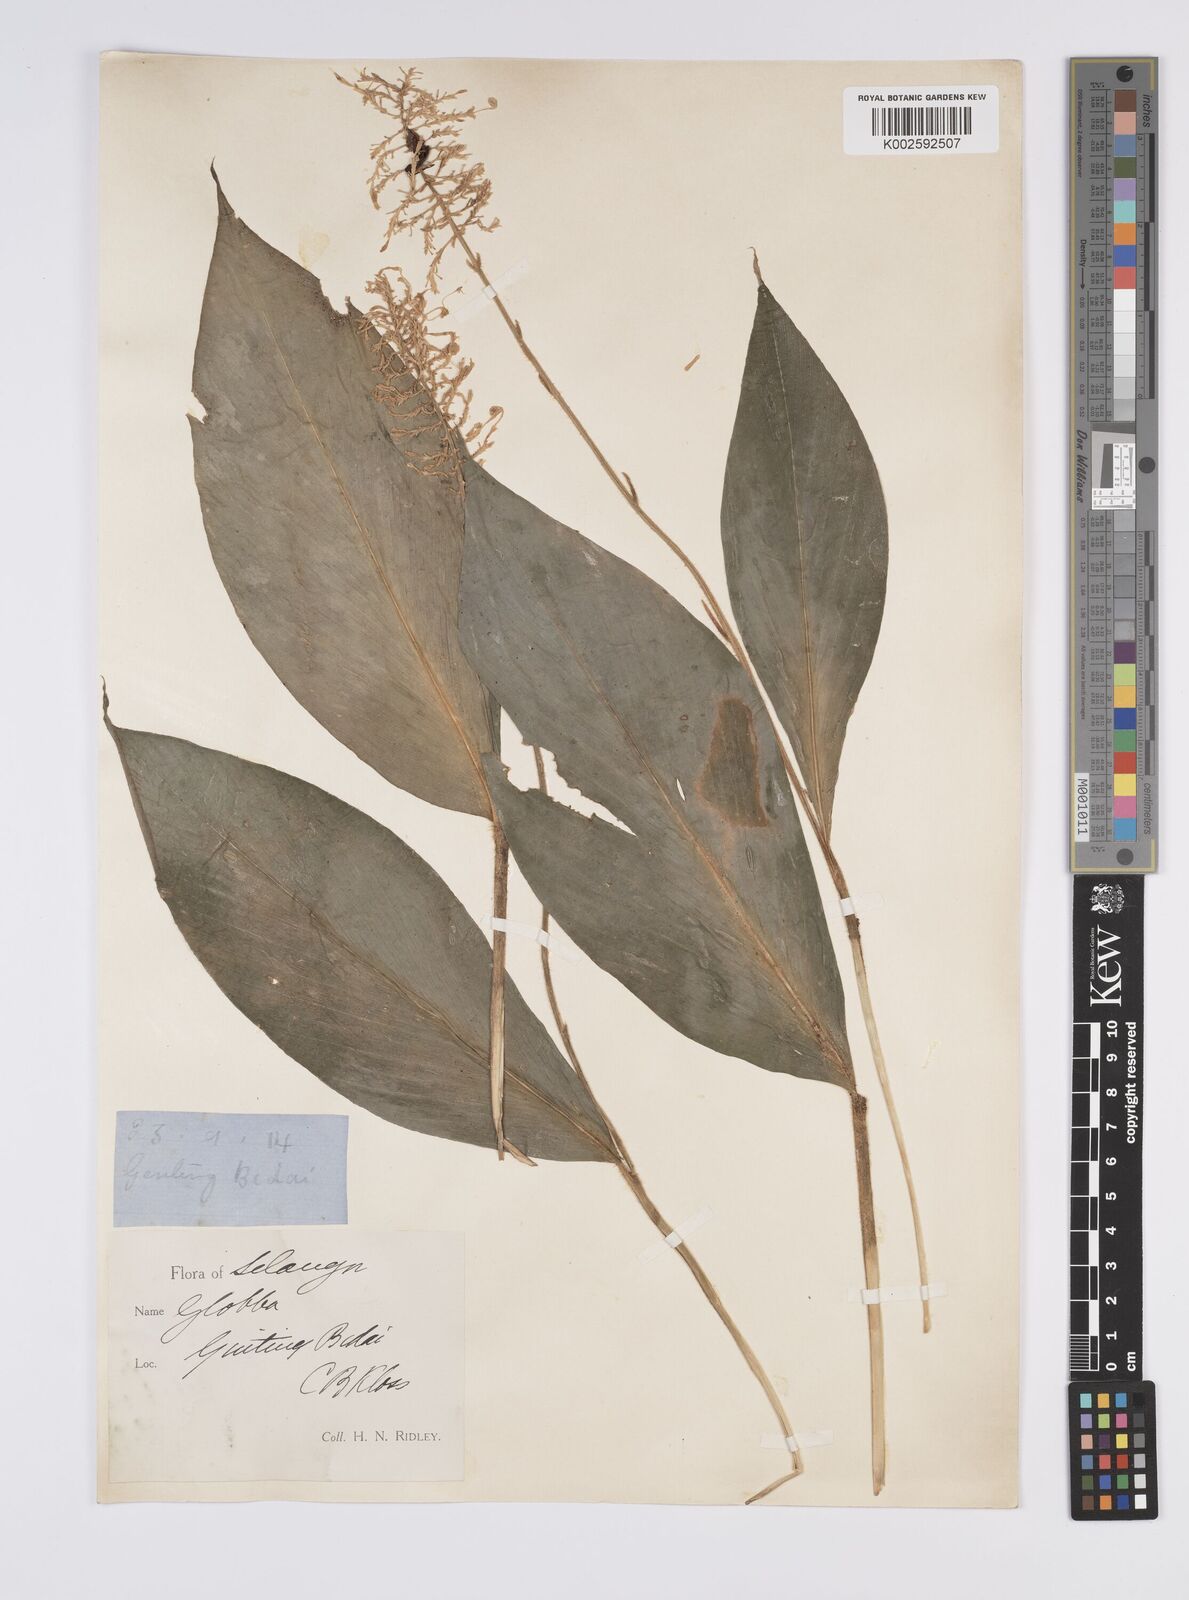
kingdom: Plantae
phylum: Tracheophyta
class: Liliopsida
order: Zingiberales
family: Zingiberaceae
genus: Globba
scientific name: Globba aurantiaca
